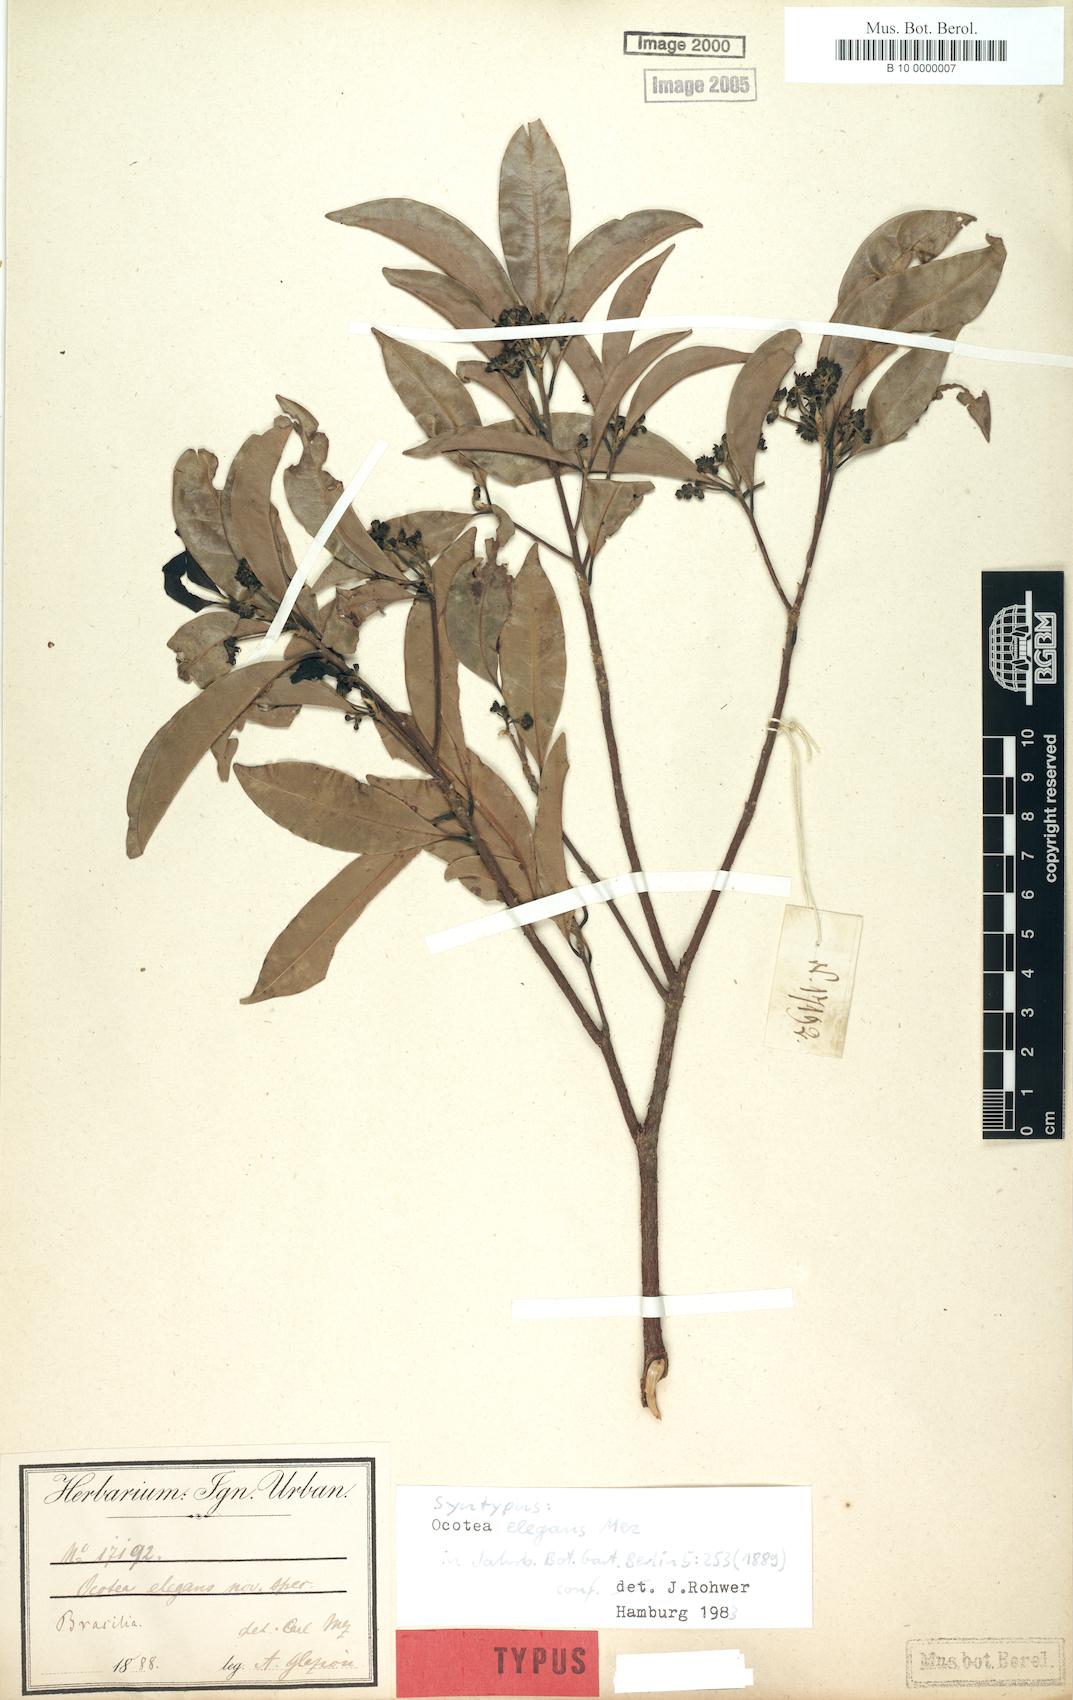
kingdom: Plantae
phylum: Tracheophyta
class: Magnoliopsida
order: Laurales
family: Lauraceae
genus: Ocotea
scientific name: Ocotea elegans
